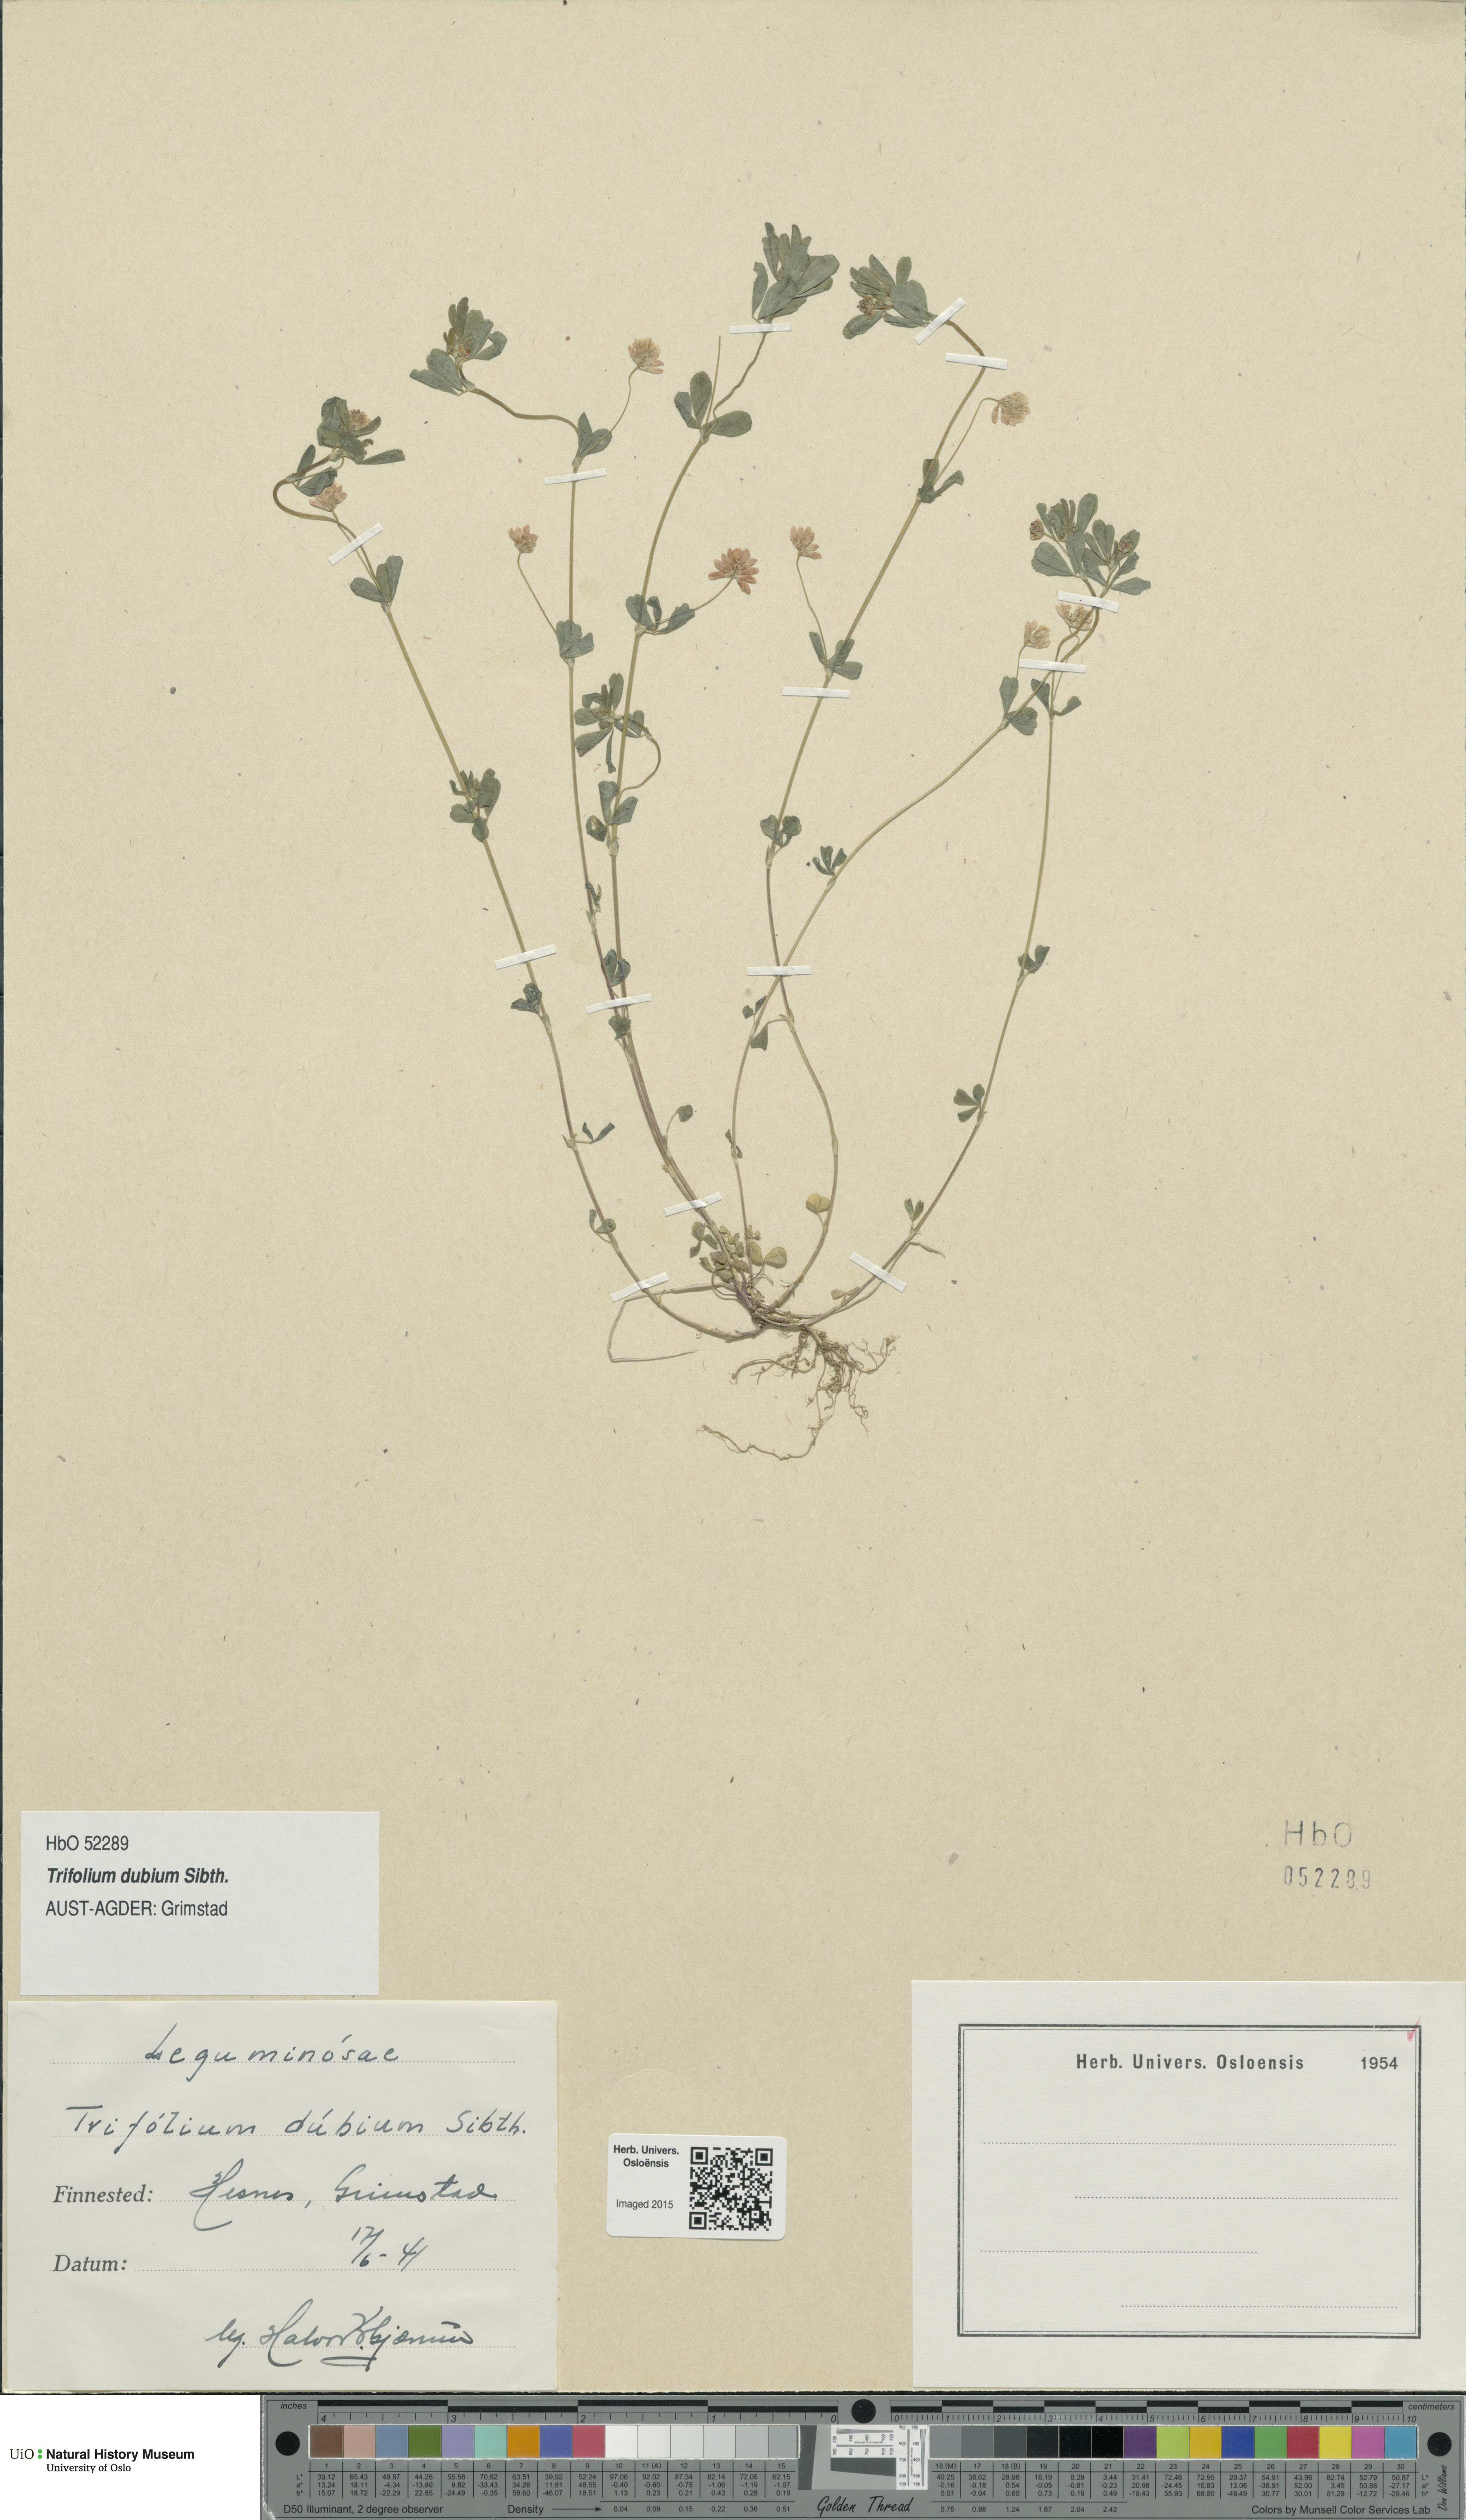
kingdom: Plantae
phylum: Tracheophyta
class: Magnoliopsida
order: Fabales
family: Fabaceae
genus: Trifolium
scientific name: Trifolium dubium
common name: Suckling clover
